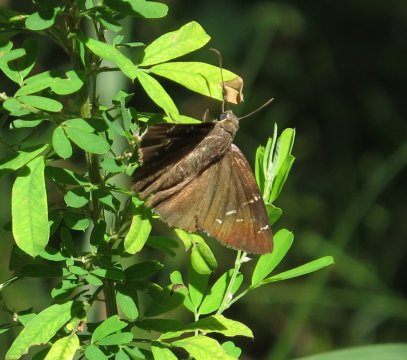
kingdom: Animalia
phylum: Arthropoda
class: Insecta
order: Lepidoptera
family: Hesperiidae
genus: Thorybes
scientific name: Thorybes mexicana
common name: Confused Cloudywing
